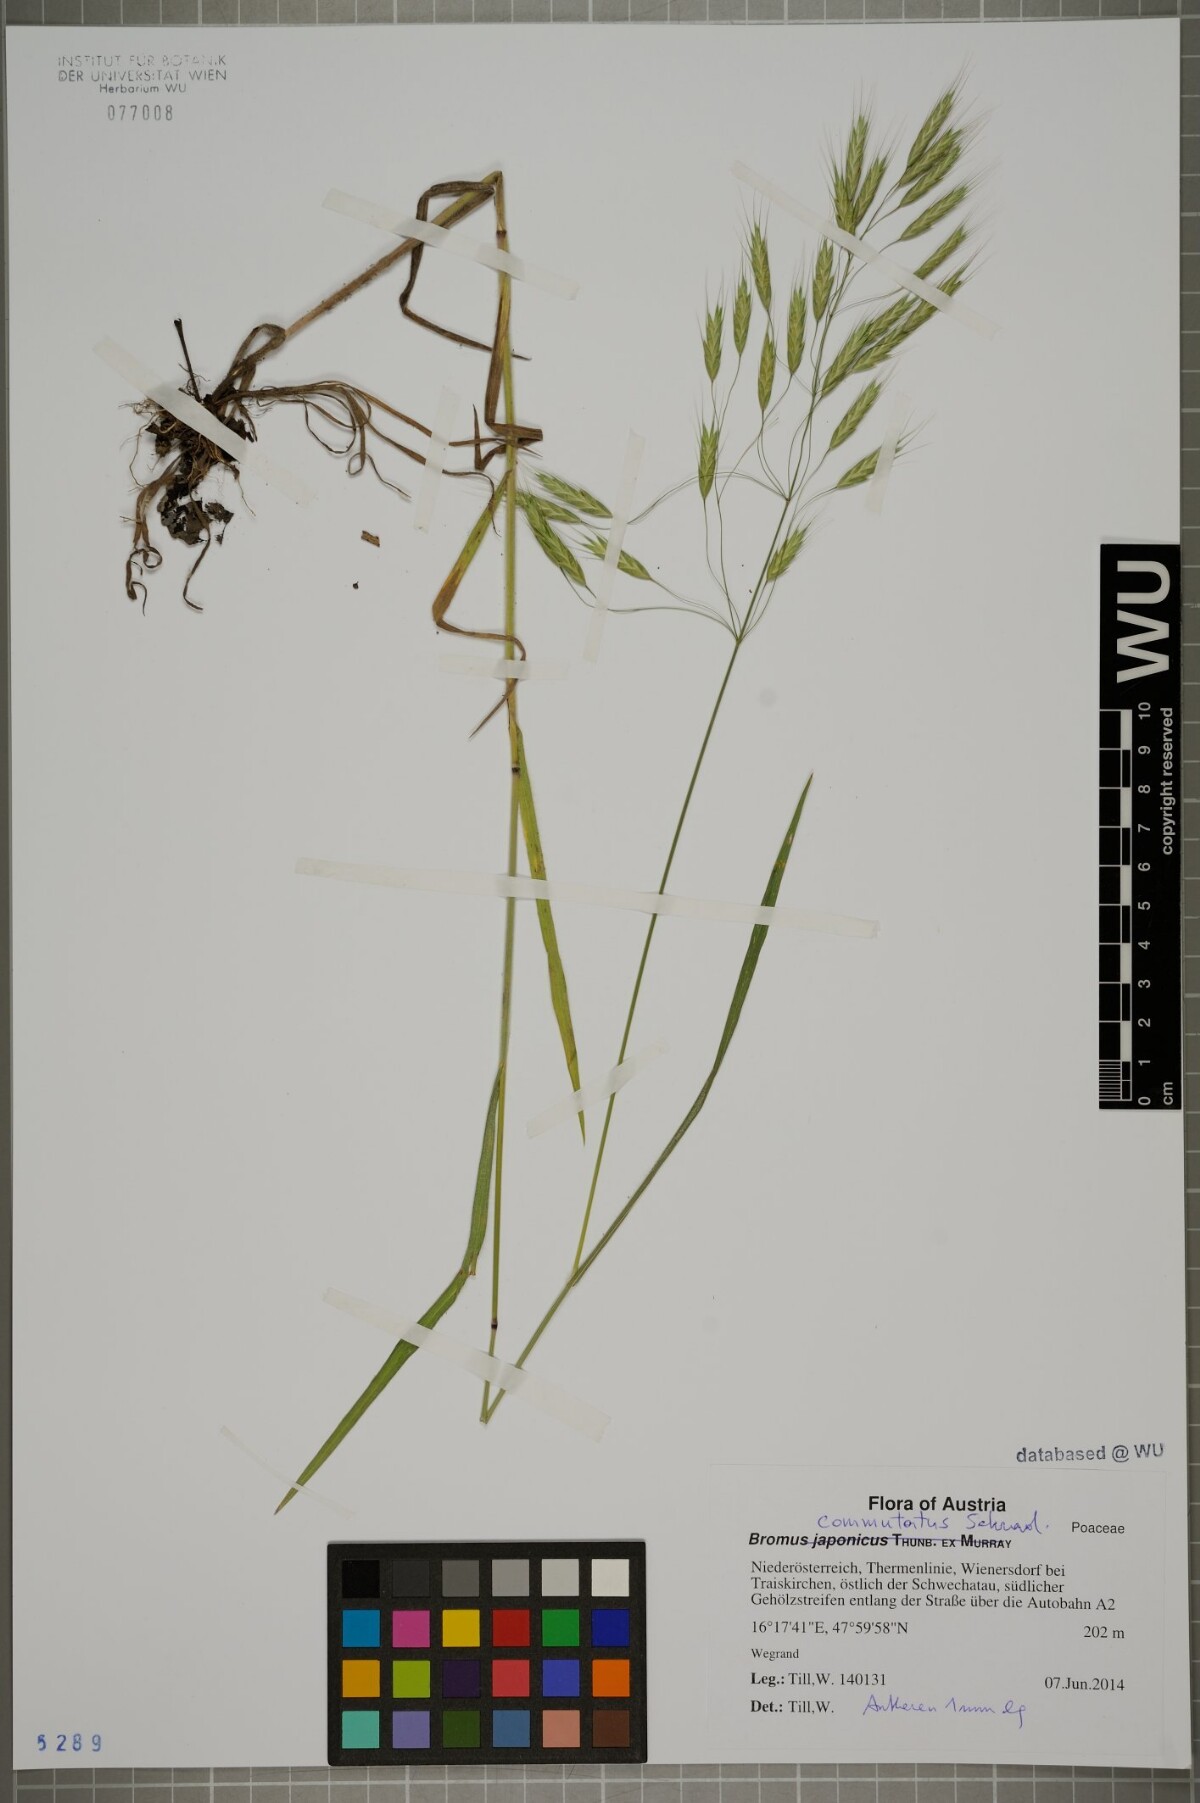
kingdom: Plantae
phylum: Tracheophyta
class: Liliopsida
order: Poales
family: Poaceae
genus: Bromus
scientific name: Bromus japonicus
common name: Japanese brome
